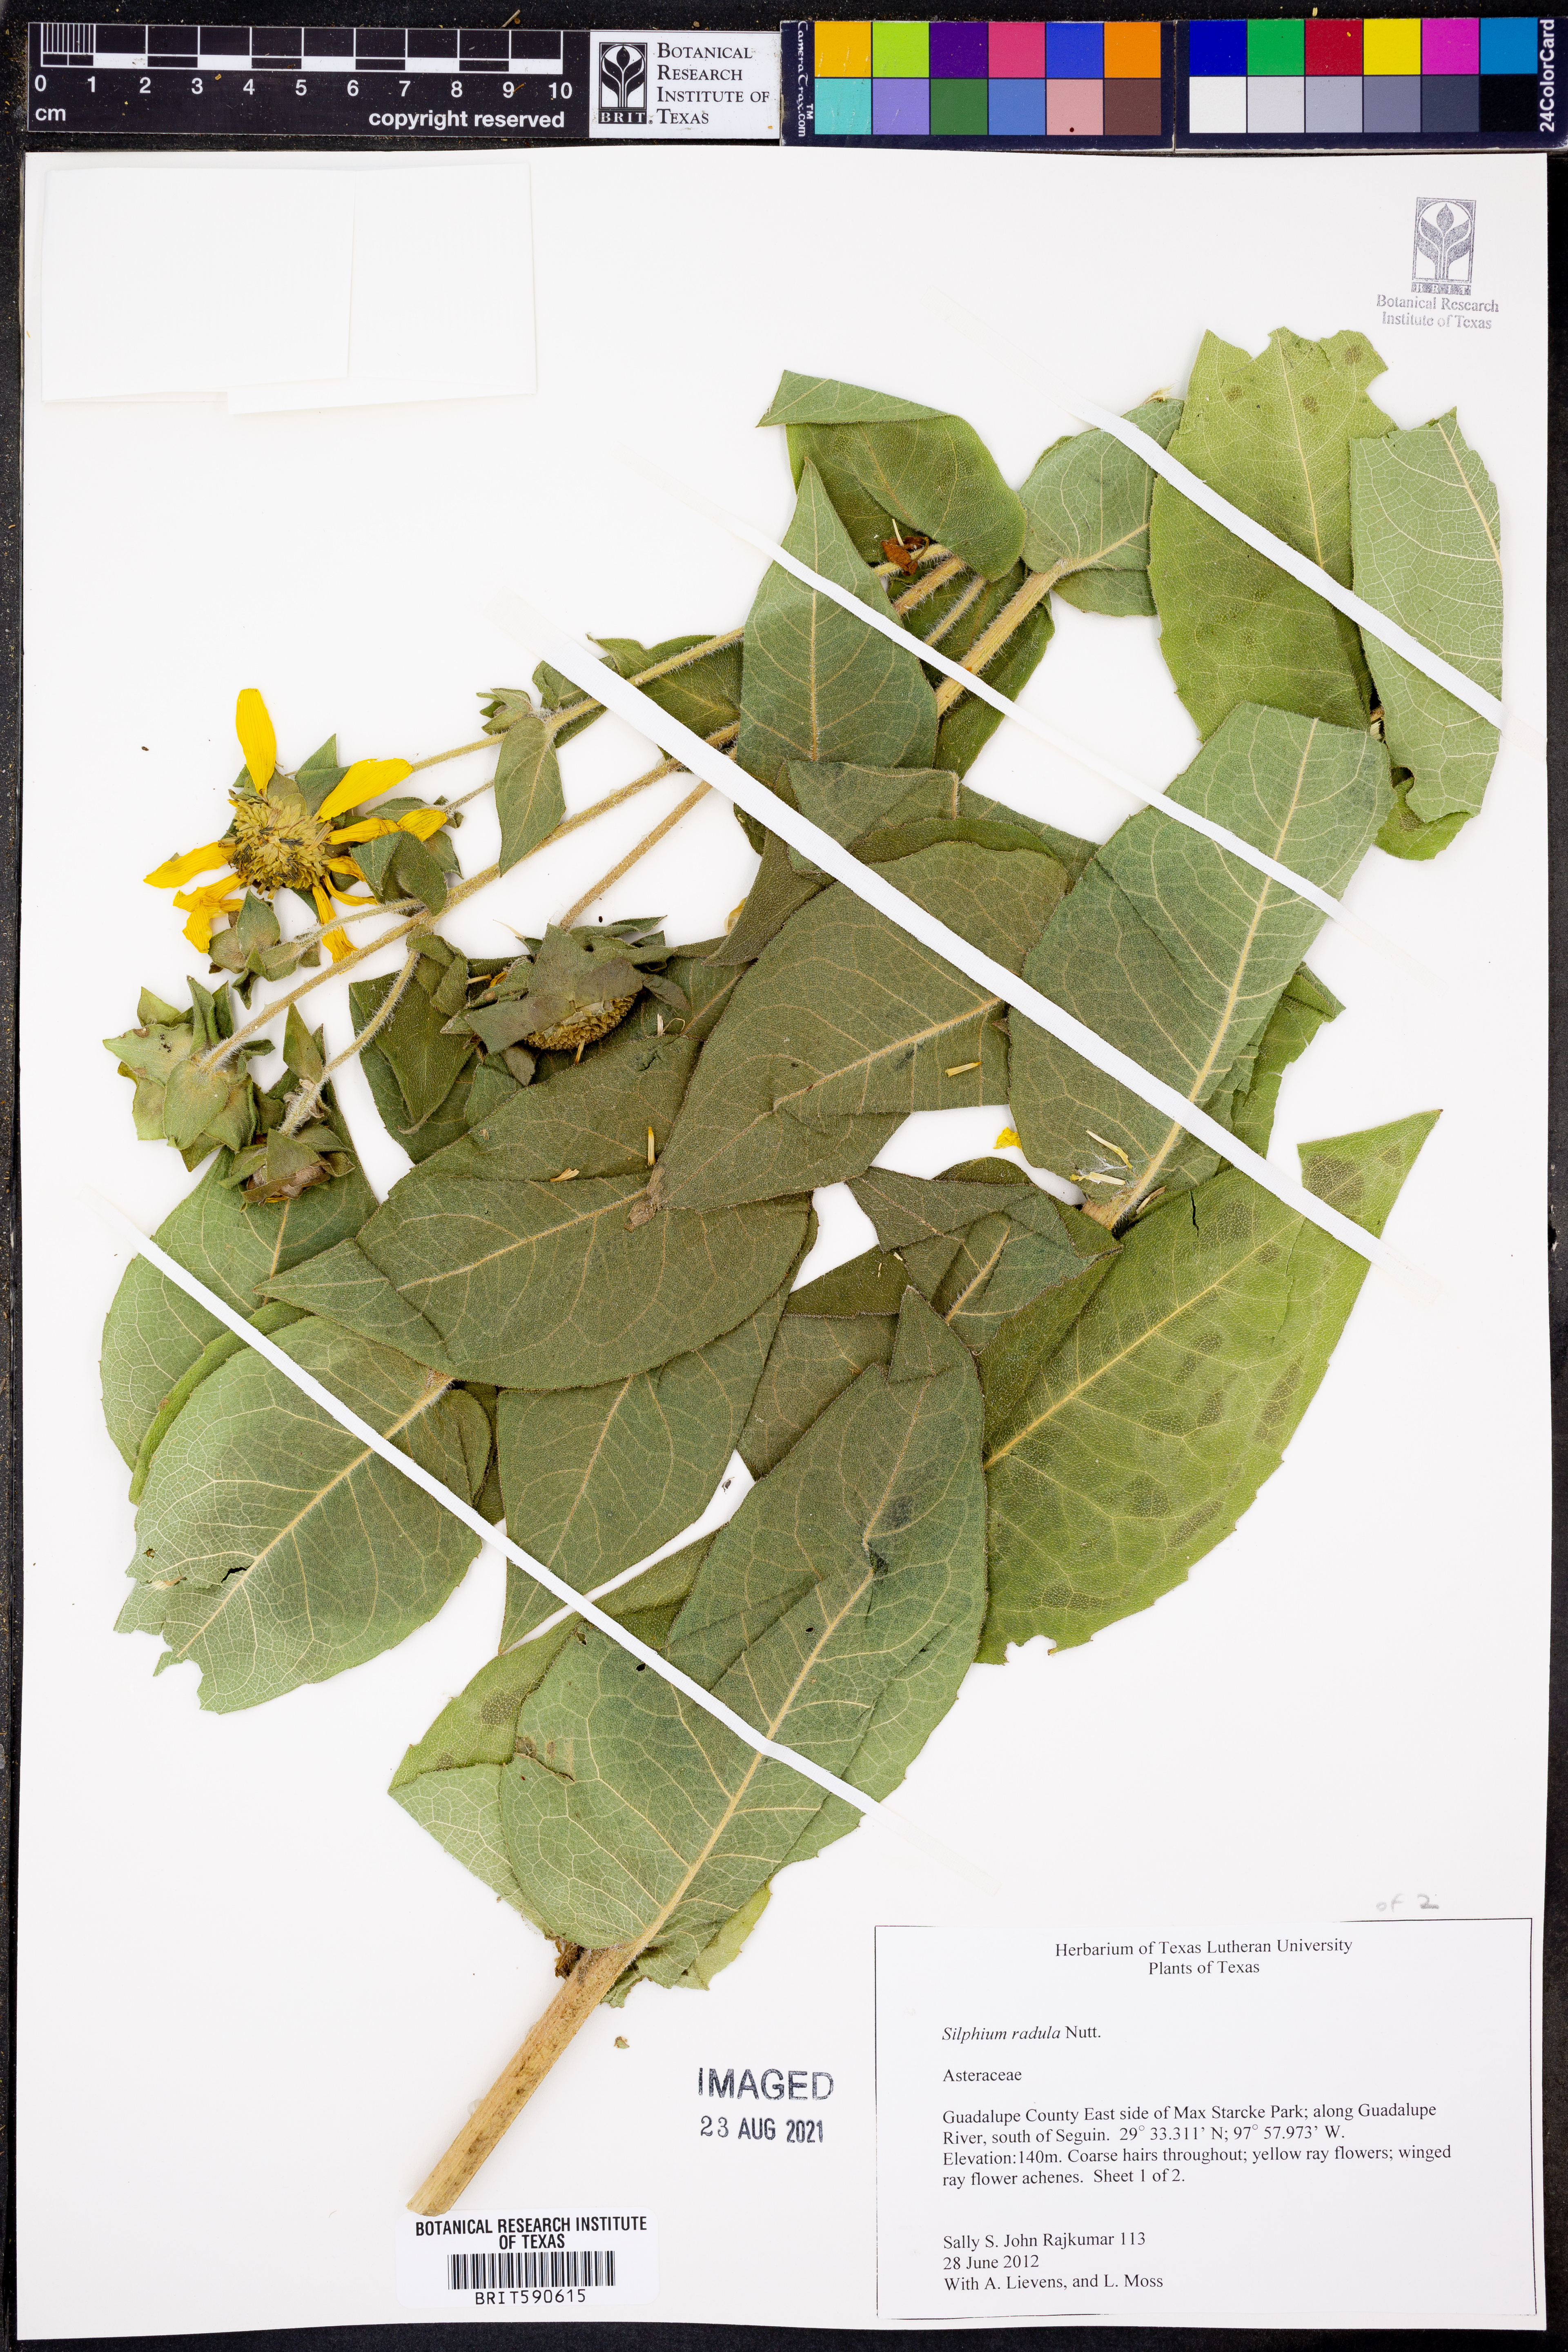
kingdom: Plantae
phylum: Tracheophyta
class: Magnoliopsida
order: Asterales
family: Asteraceae
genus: Silphium
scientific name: Silphium radula
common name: Roughleaf rosinweed
